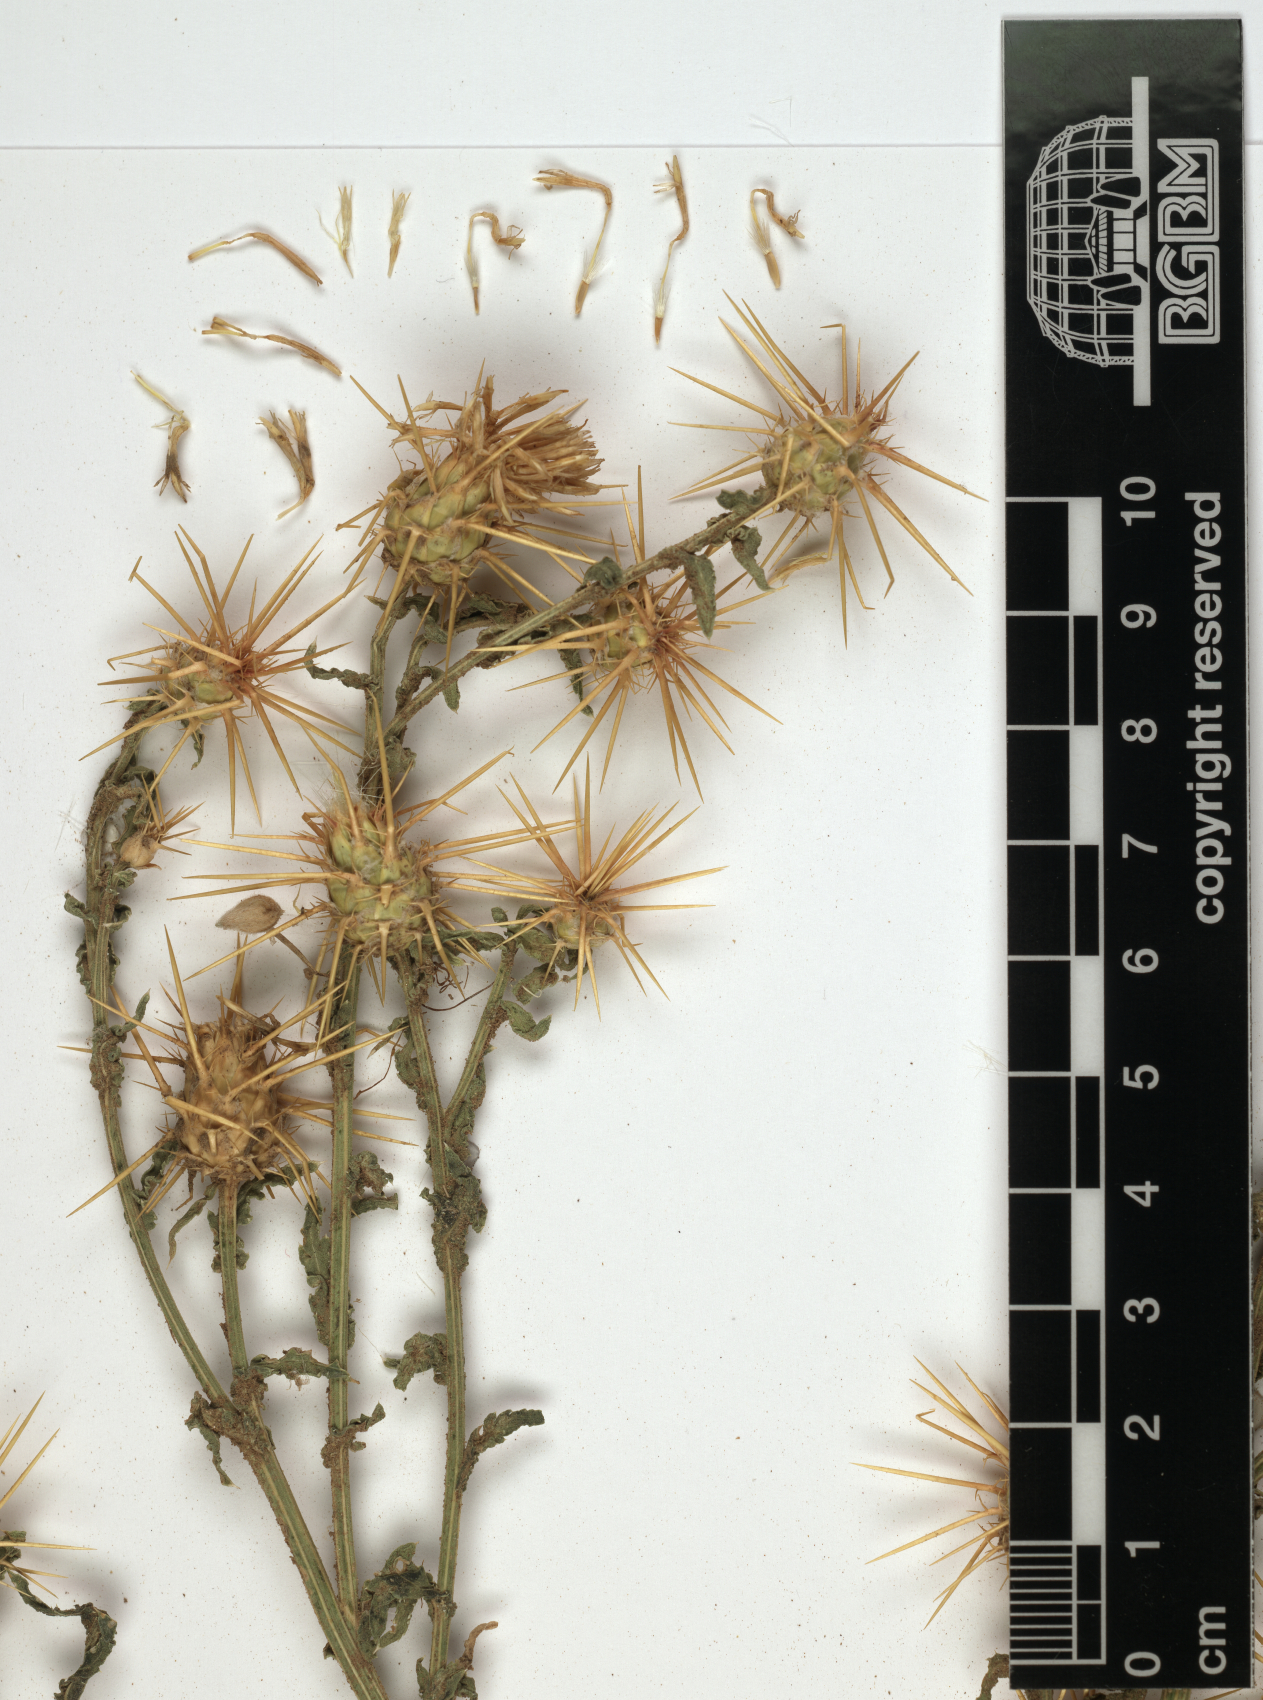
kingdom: Plantae
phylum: Tracheophyta
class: Magnoliopsida
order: Asterales
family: Asteraceae
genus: Centaurea
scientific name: Centaurea pseudosinaica
